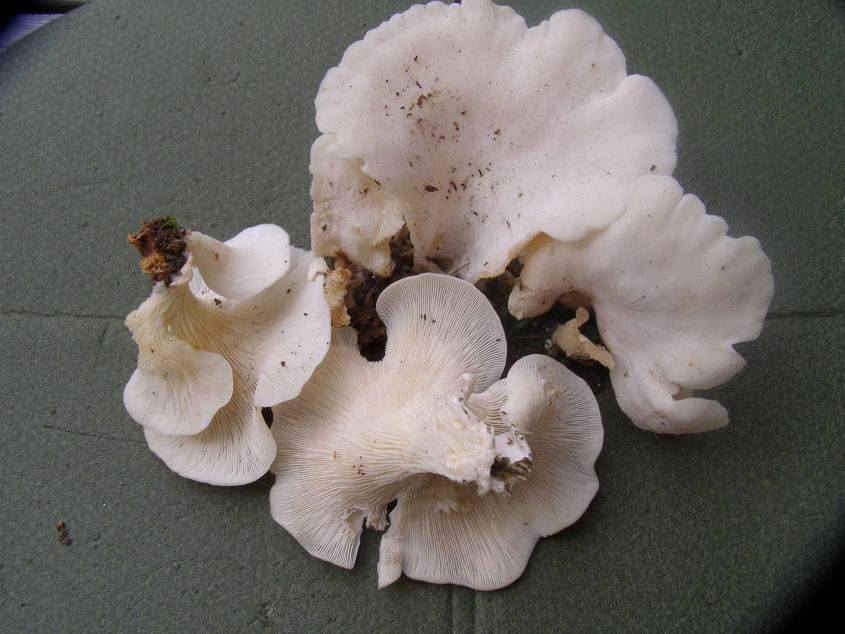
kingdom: Fungi
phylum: Basidiomycota
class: Agaricomycetes
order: Agaricales
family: Marasmiaceae
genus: Pleurocybella
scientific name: Pleurocybella porrigens
